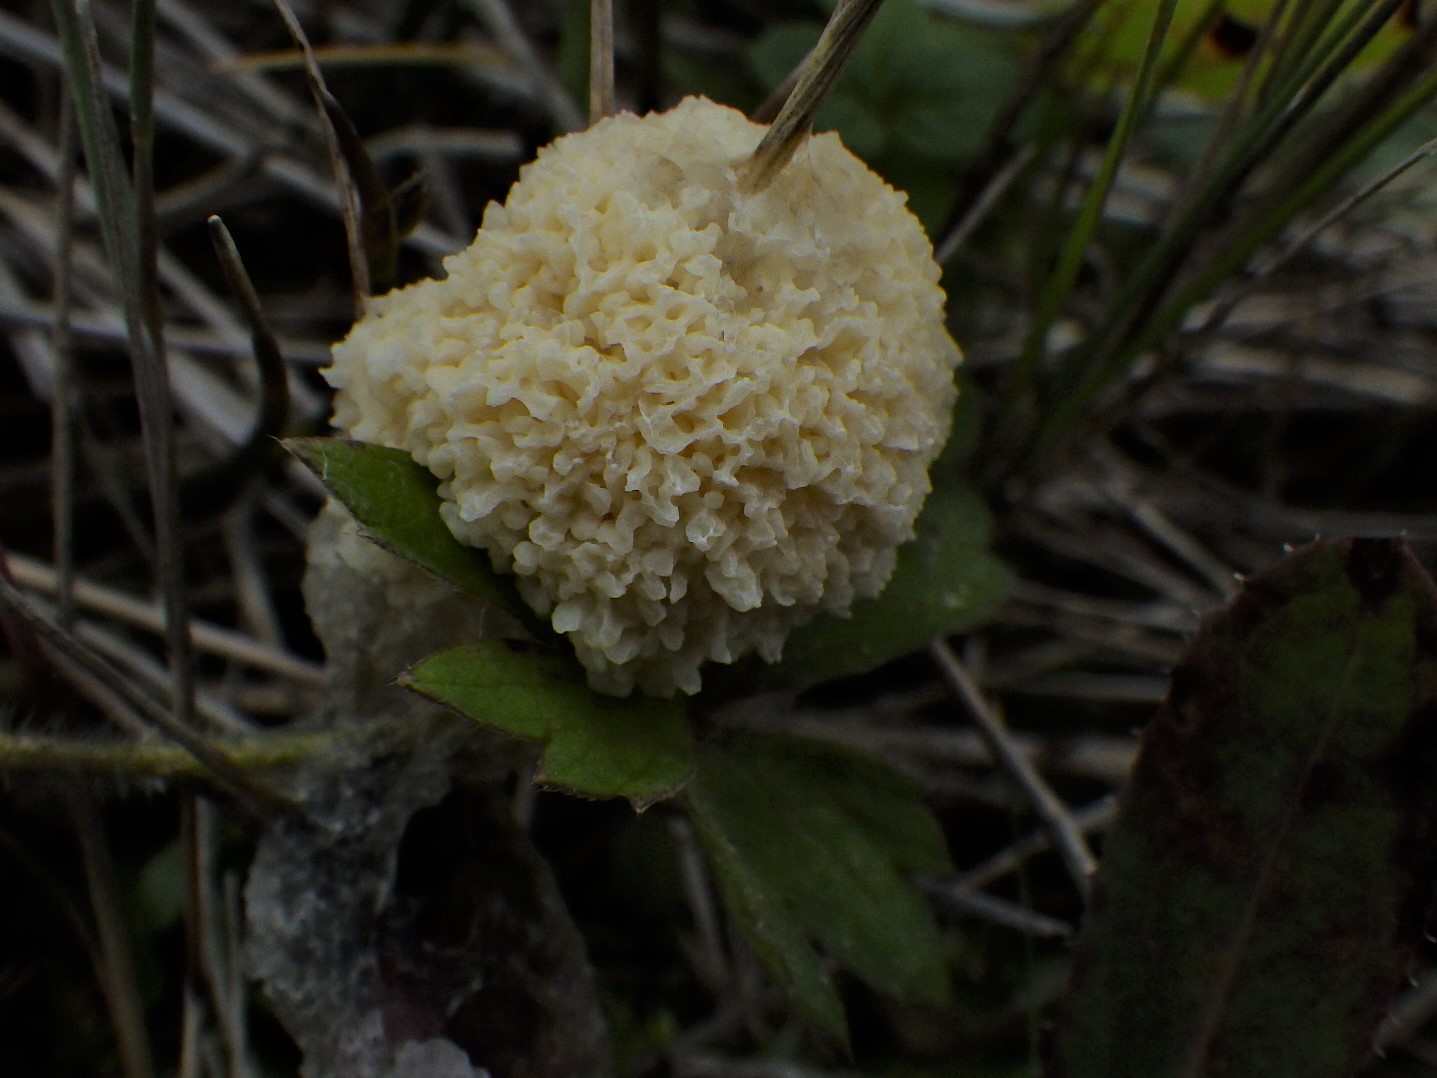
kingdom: Protozoa
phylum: Mycetozoa
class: Myxomycetes
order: Physarales
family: Physaraceae
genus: Didymium
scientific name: Didymium
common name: urteskum
